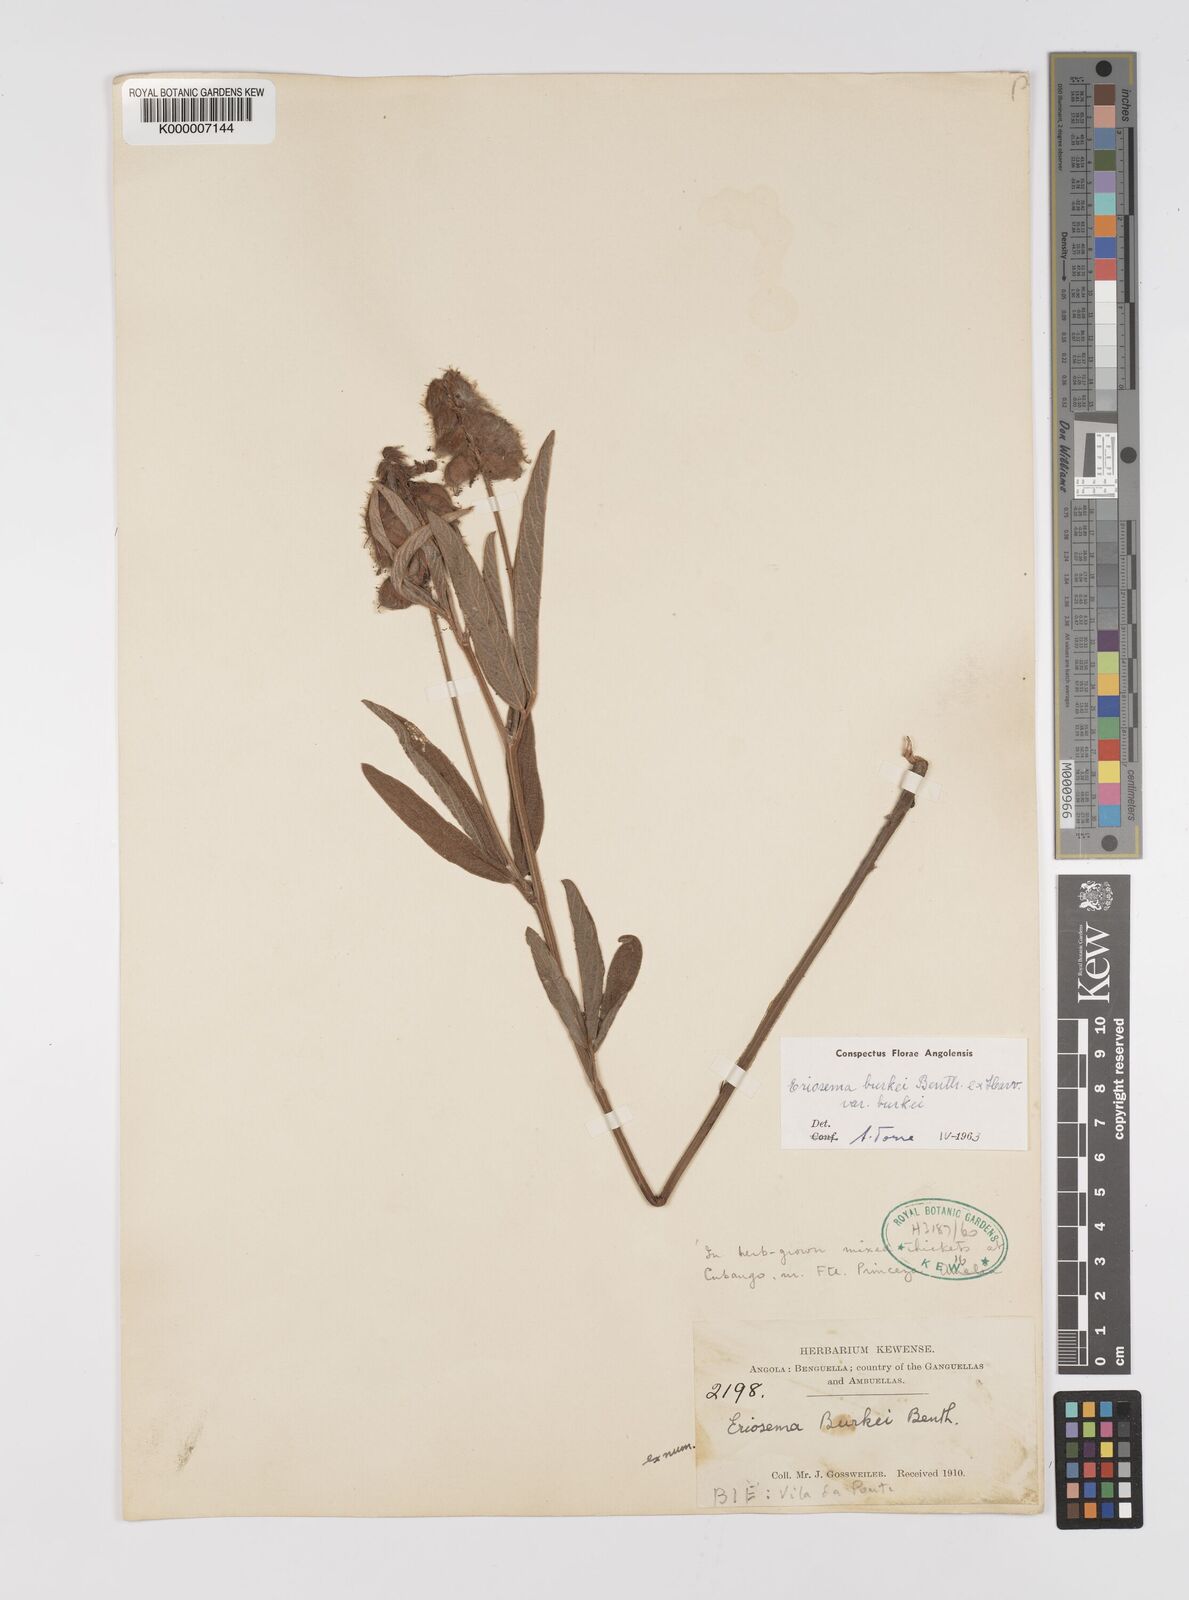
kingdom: Plantae
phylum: Tracheophyta
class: Magnoliopsida
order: Fabales
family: Fabaceae
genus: Eriosema
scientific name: Eriosema burkei
